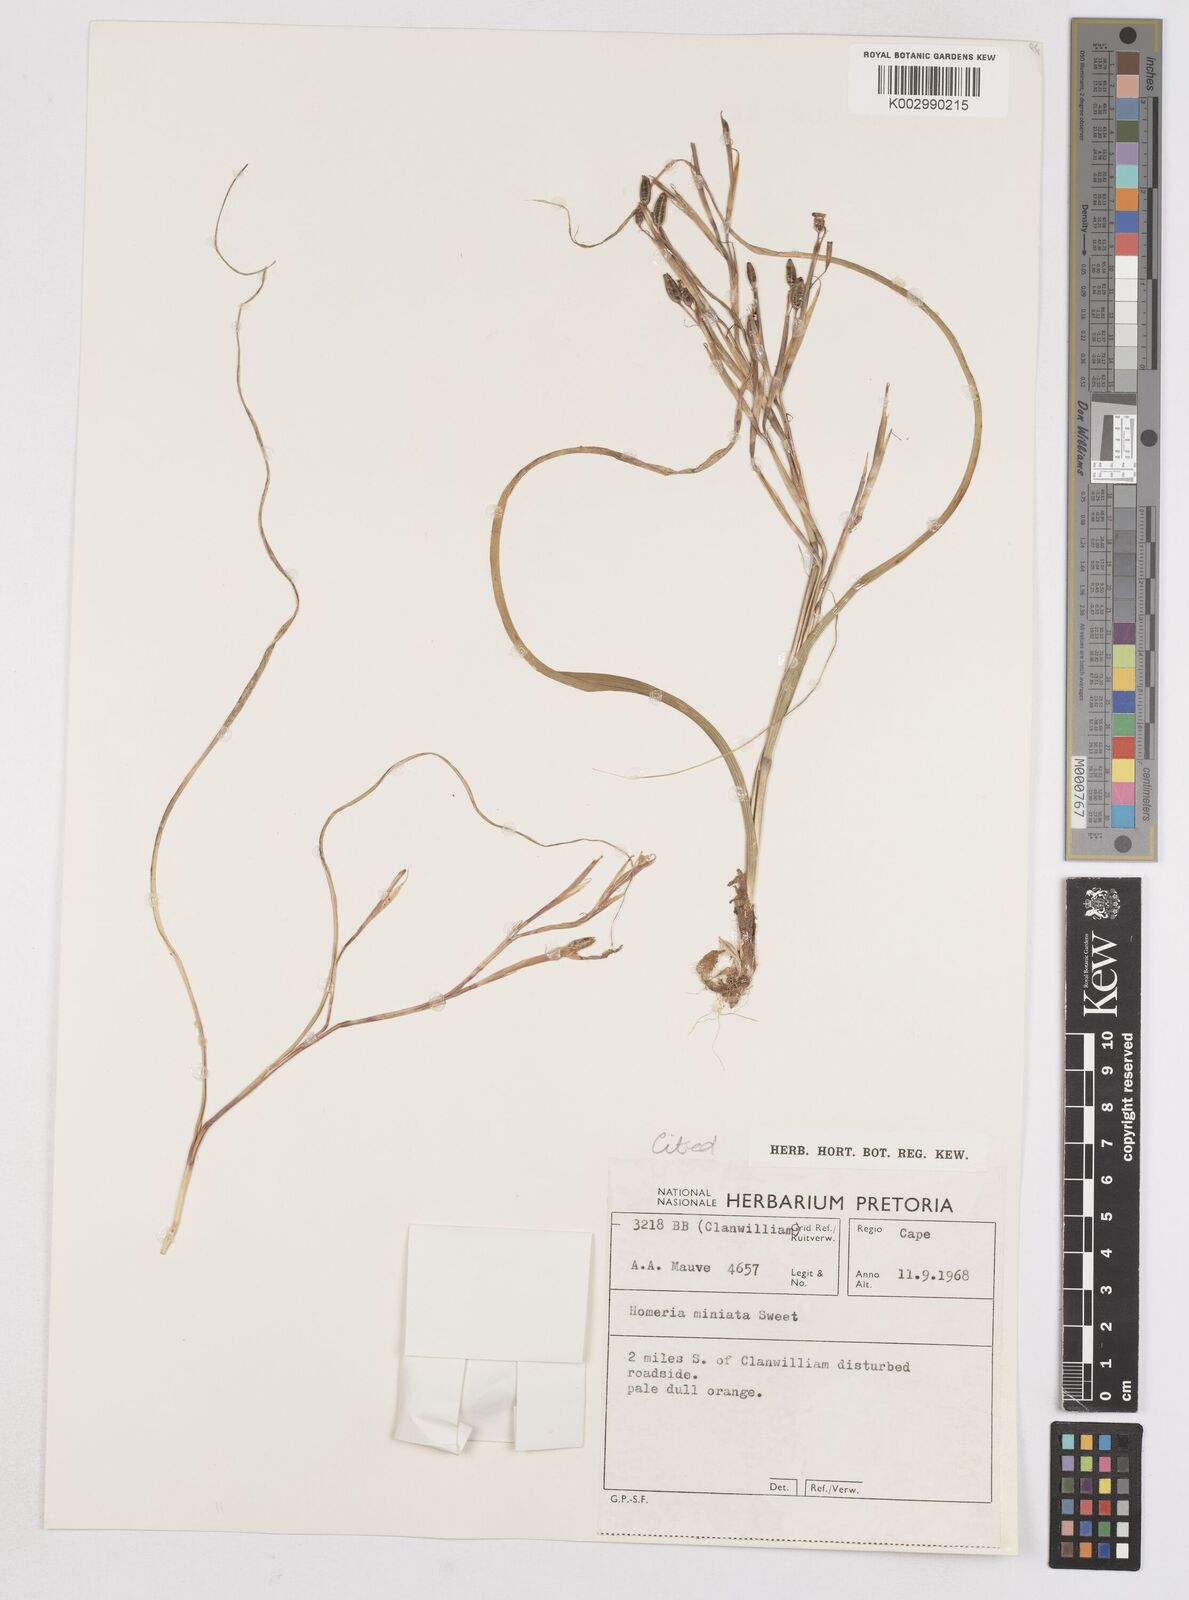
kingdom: Plantae
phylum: Tracheophyta
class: Liliopsida
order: Asparagales
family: Iridaceae
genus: Moraea
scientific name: Moraea miniata
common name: Two-leaf cape-tulip
